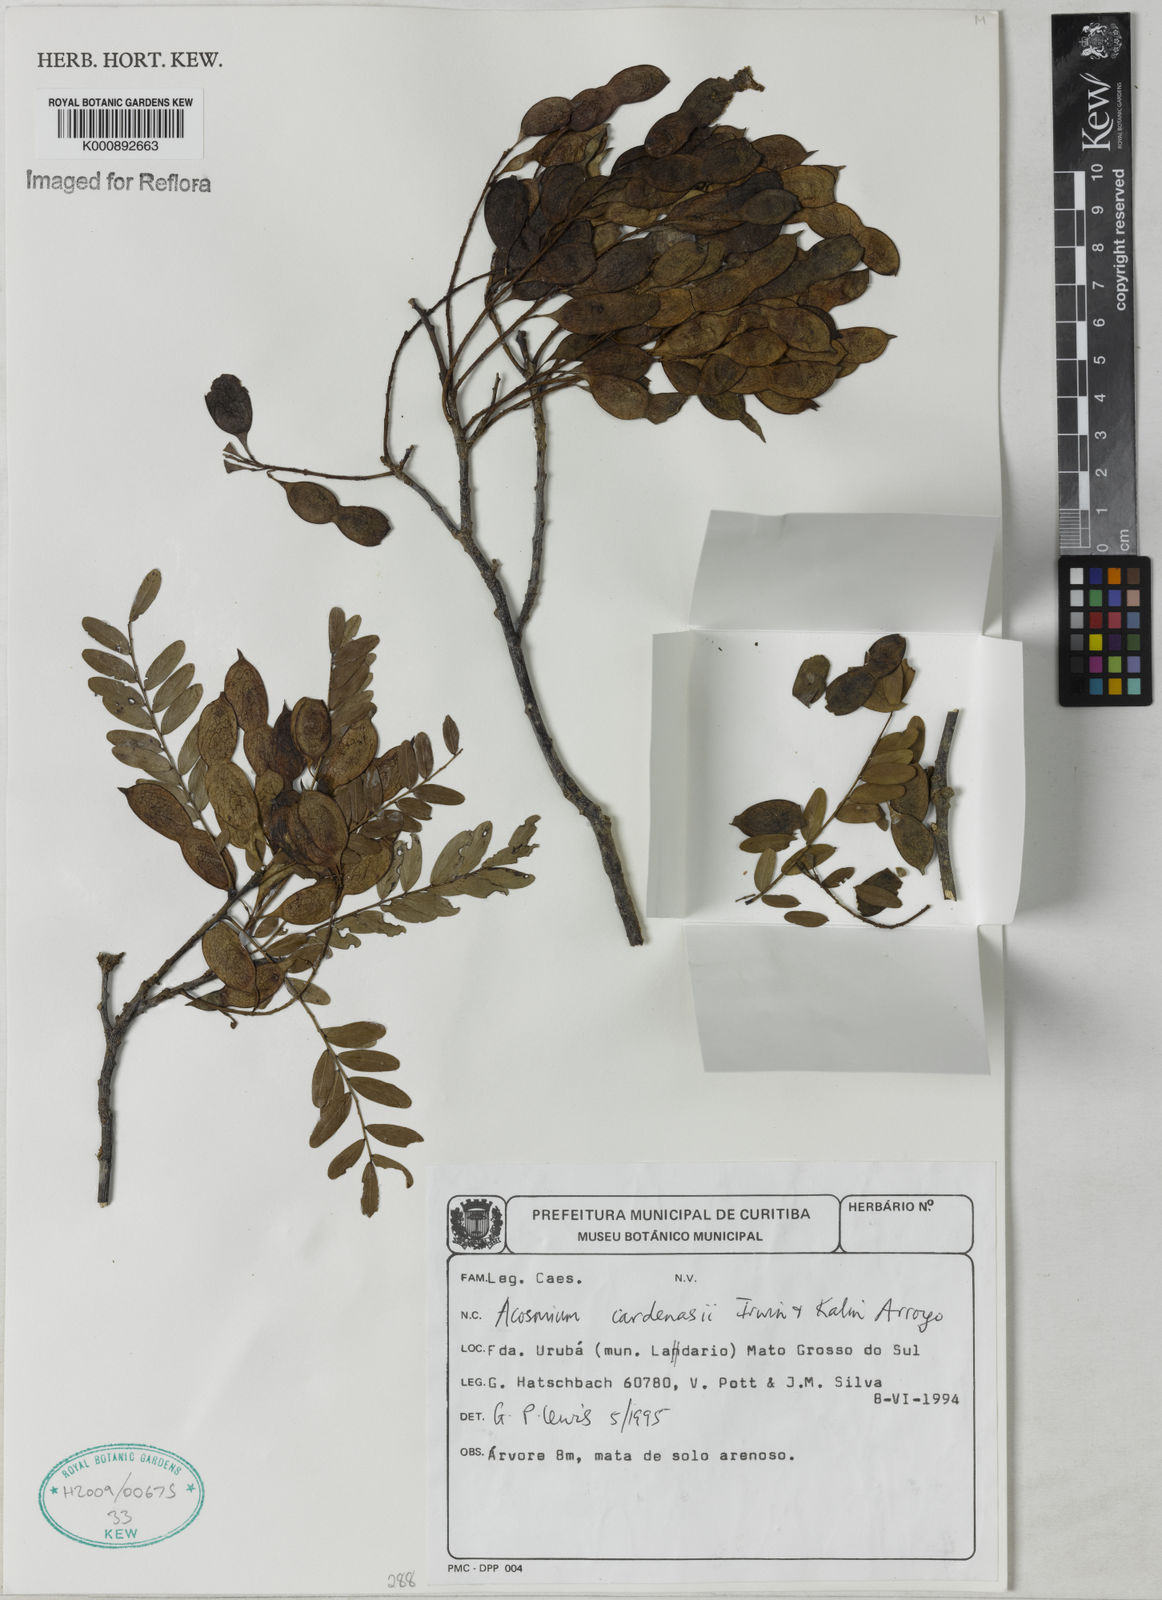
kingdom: Plantae
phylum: Tracheophyta
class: Magnoliopsida
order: Fabales
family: Fabaceae
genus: Acosmium
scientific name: Acosmium cardenasii
